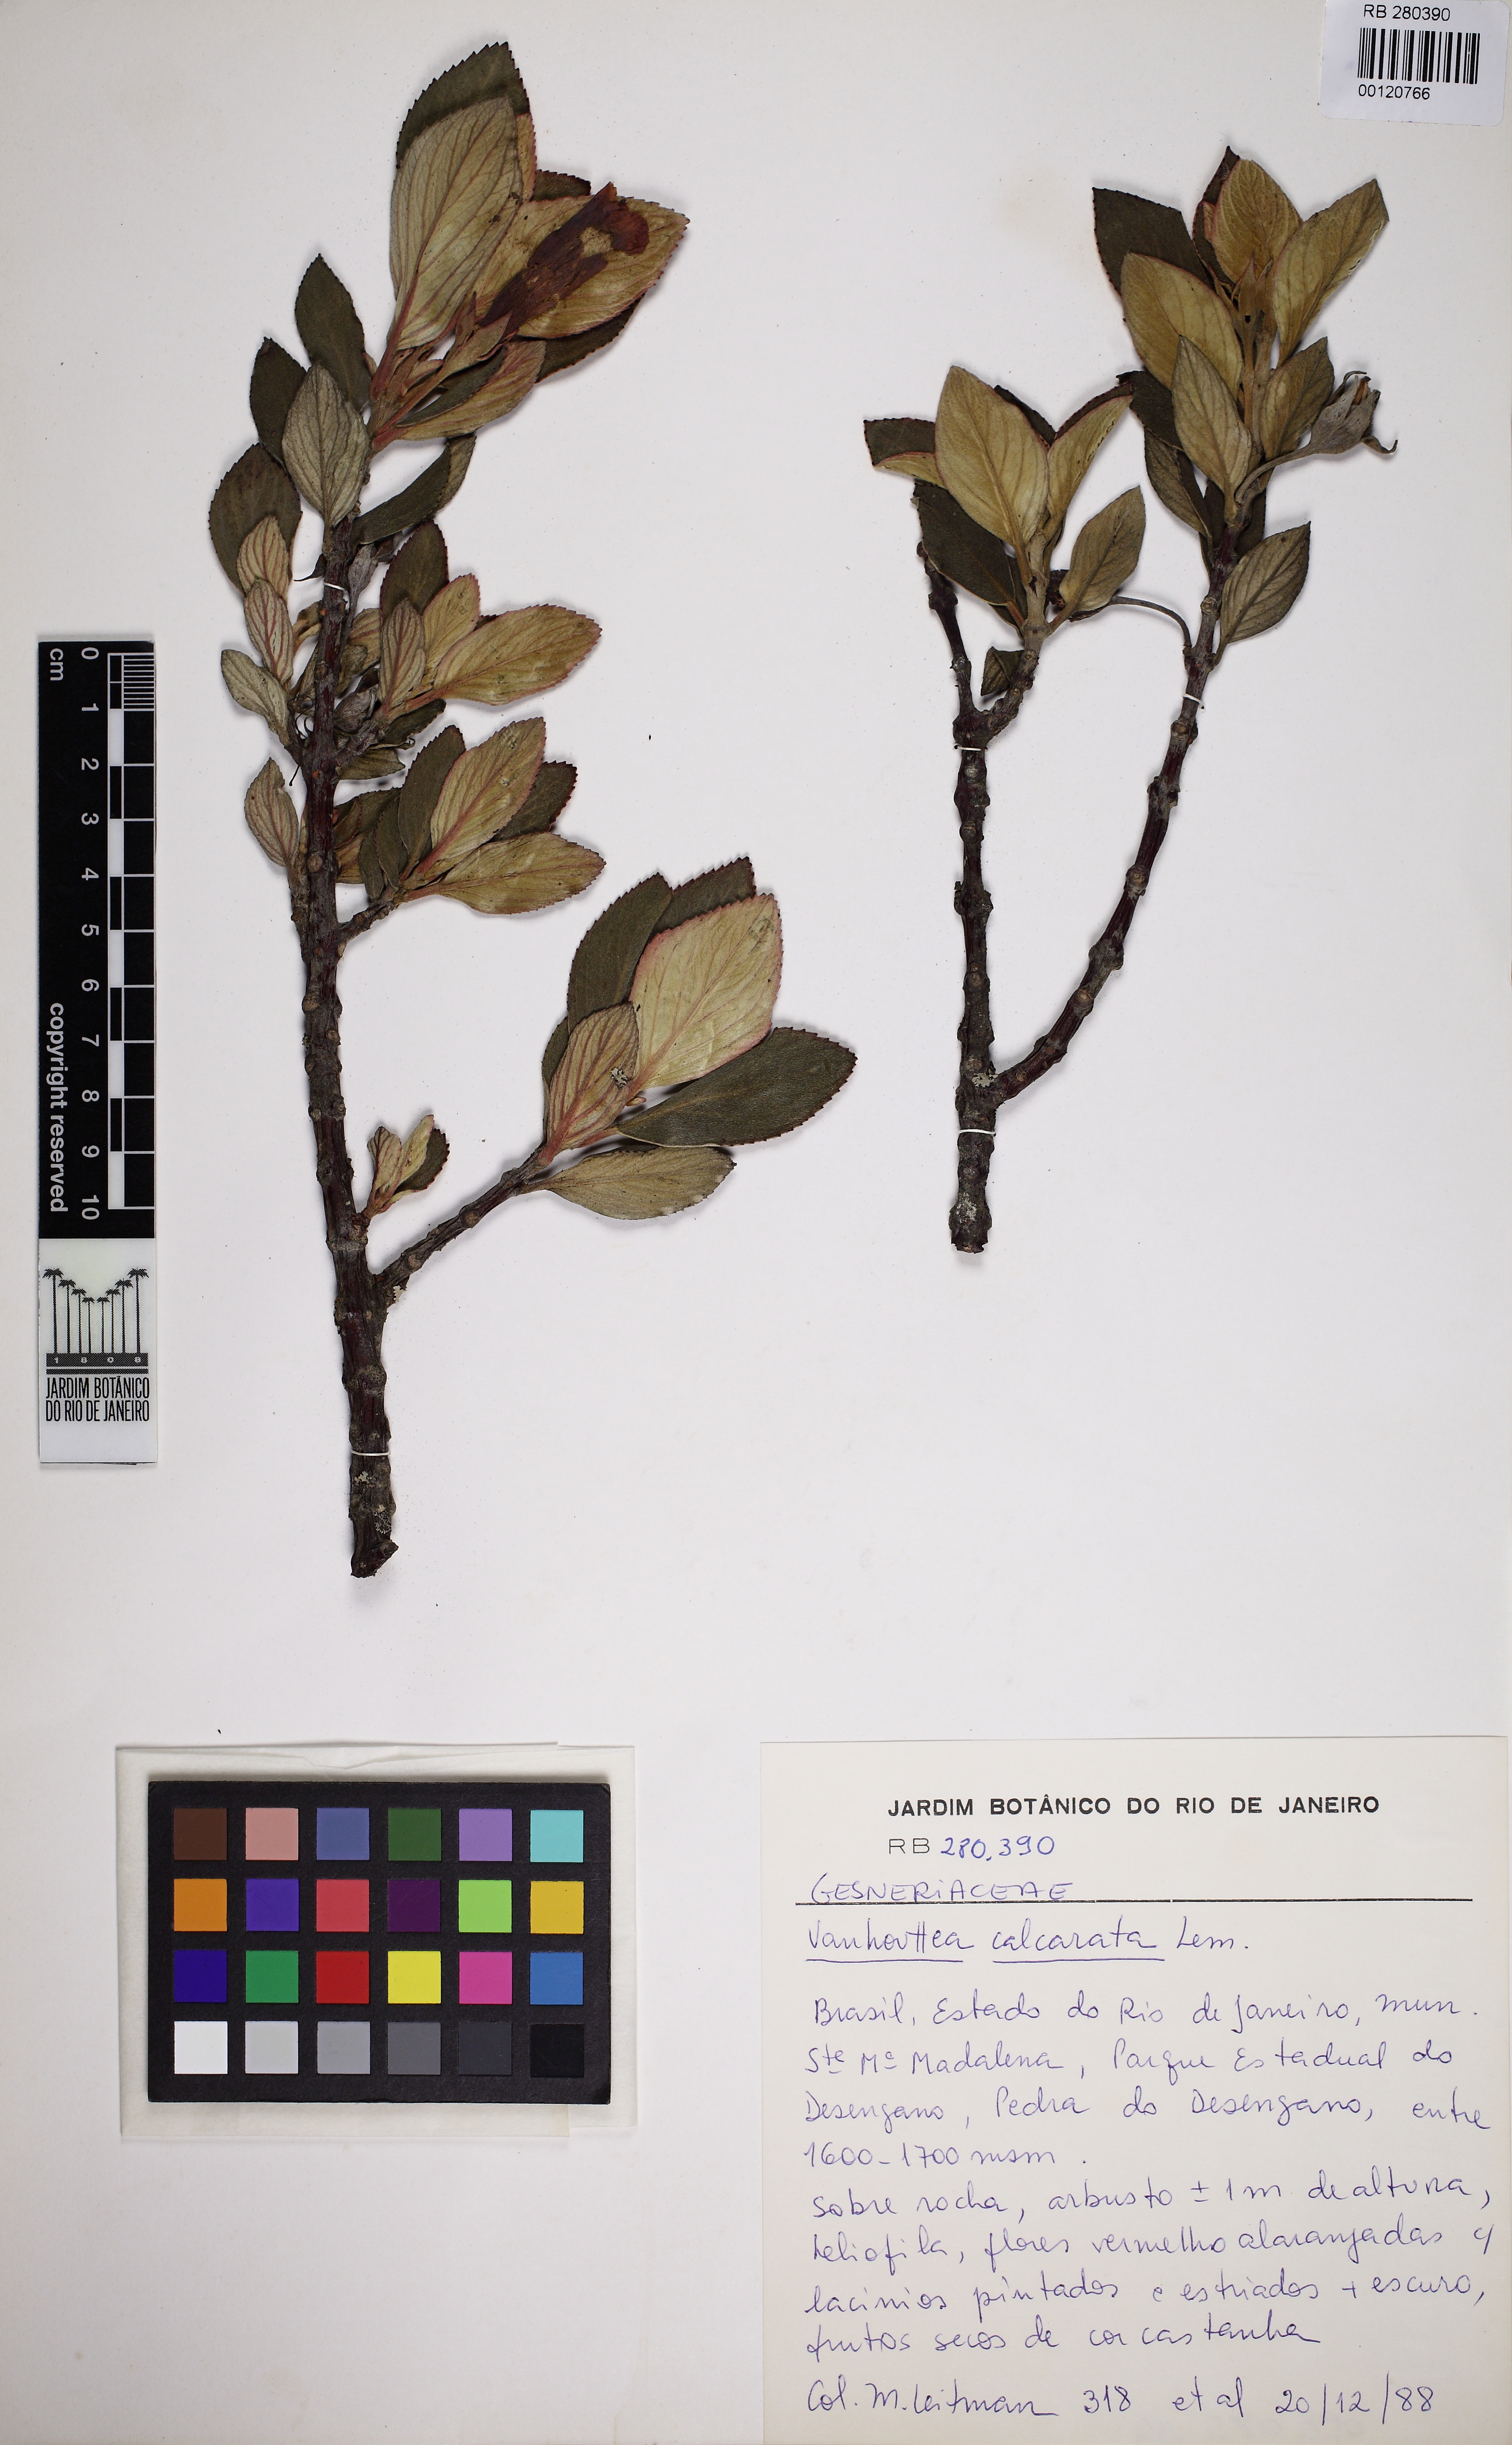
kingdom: Plantae
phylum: Tracheophyta
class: Magnoliopsida
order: Lamiales
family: Gesneriaceae
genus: Vanhouttea
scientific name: Vanhouttea calcarata
